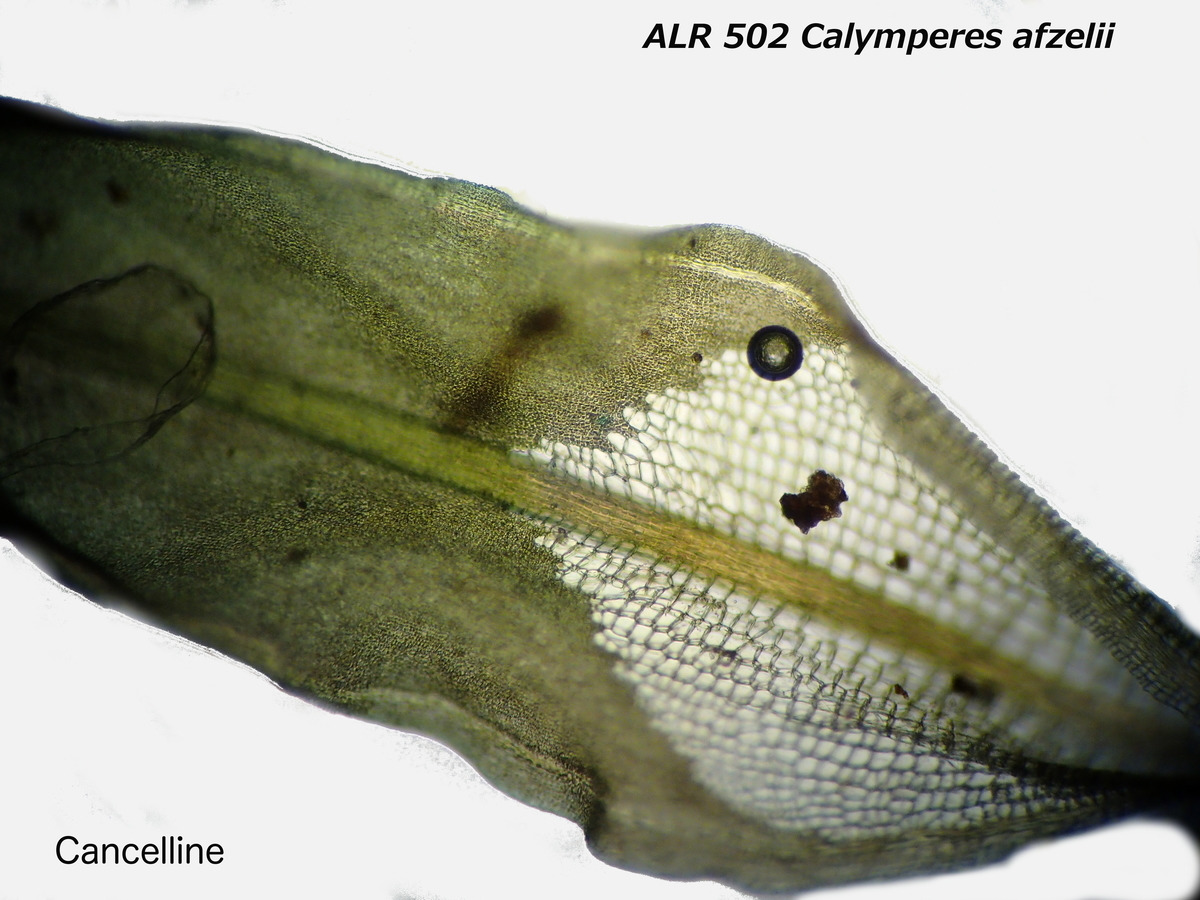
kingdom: Plantae
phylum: Bryophyta
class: Bryopsida
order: Dicranales
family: Calymperaceae
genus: Calymperes
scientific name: Calymperes afzelii
